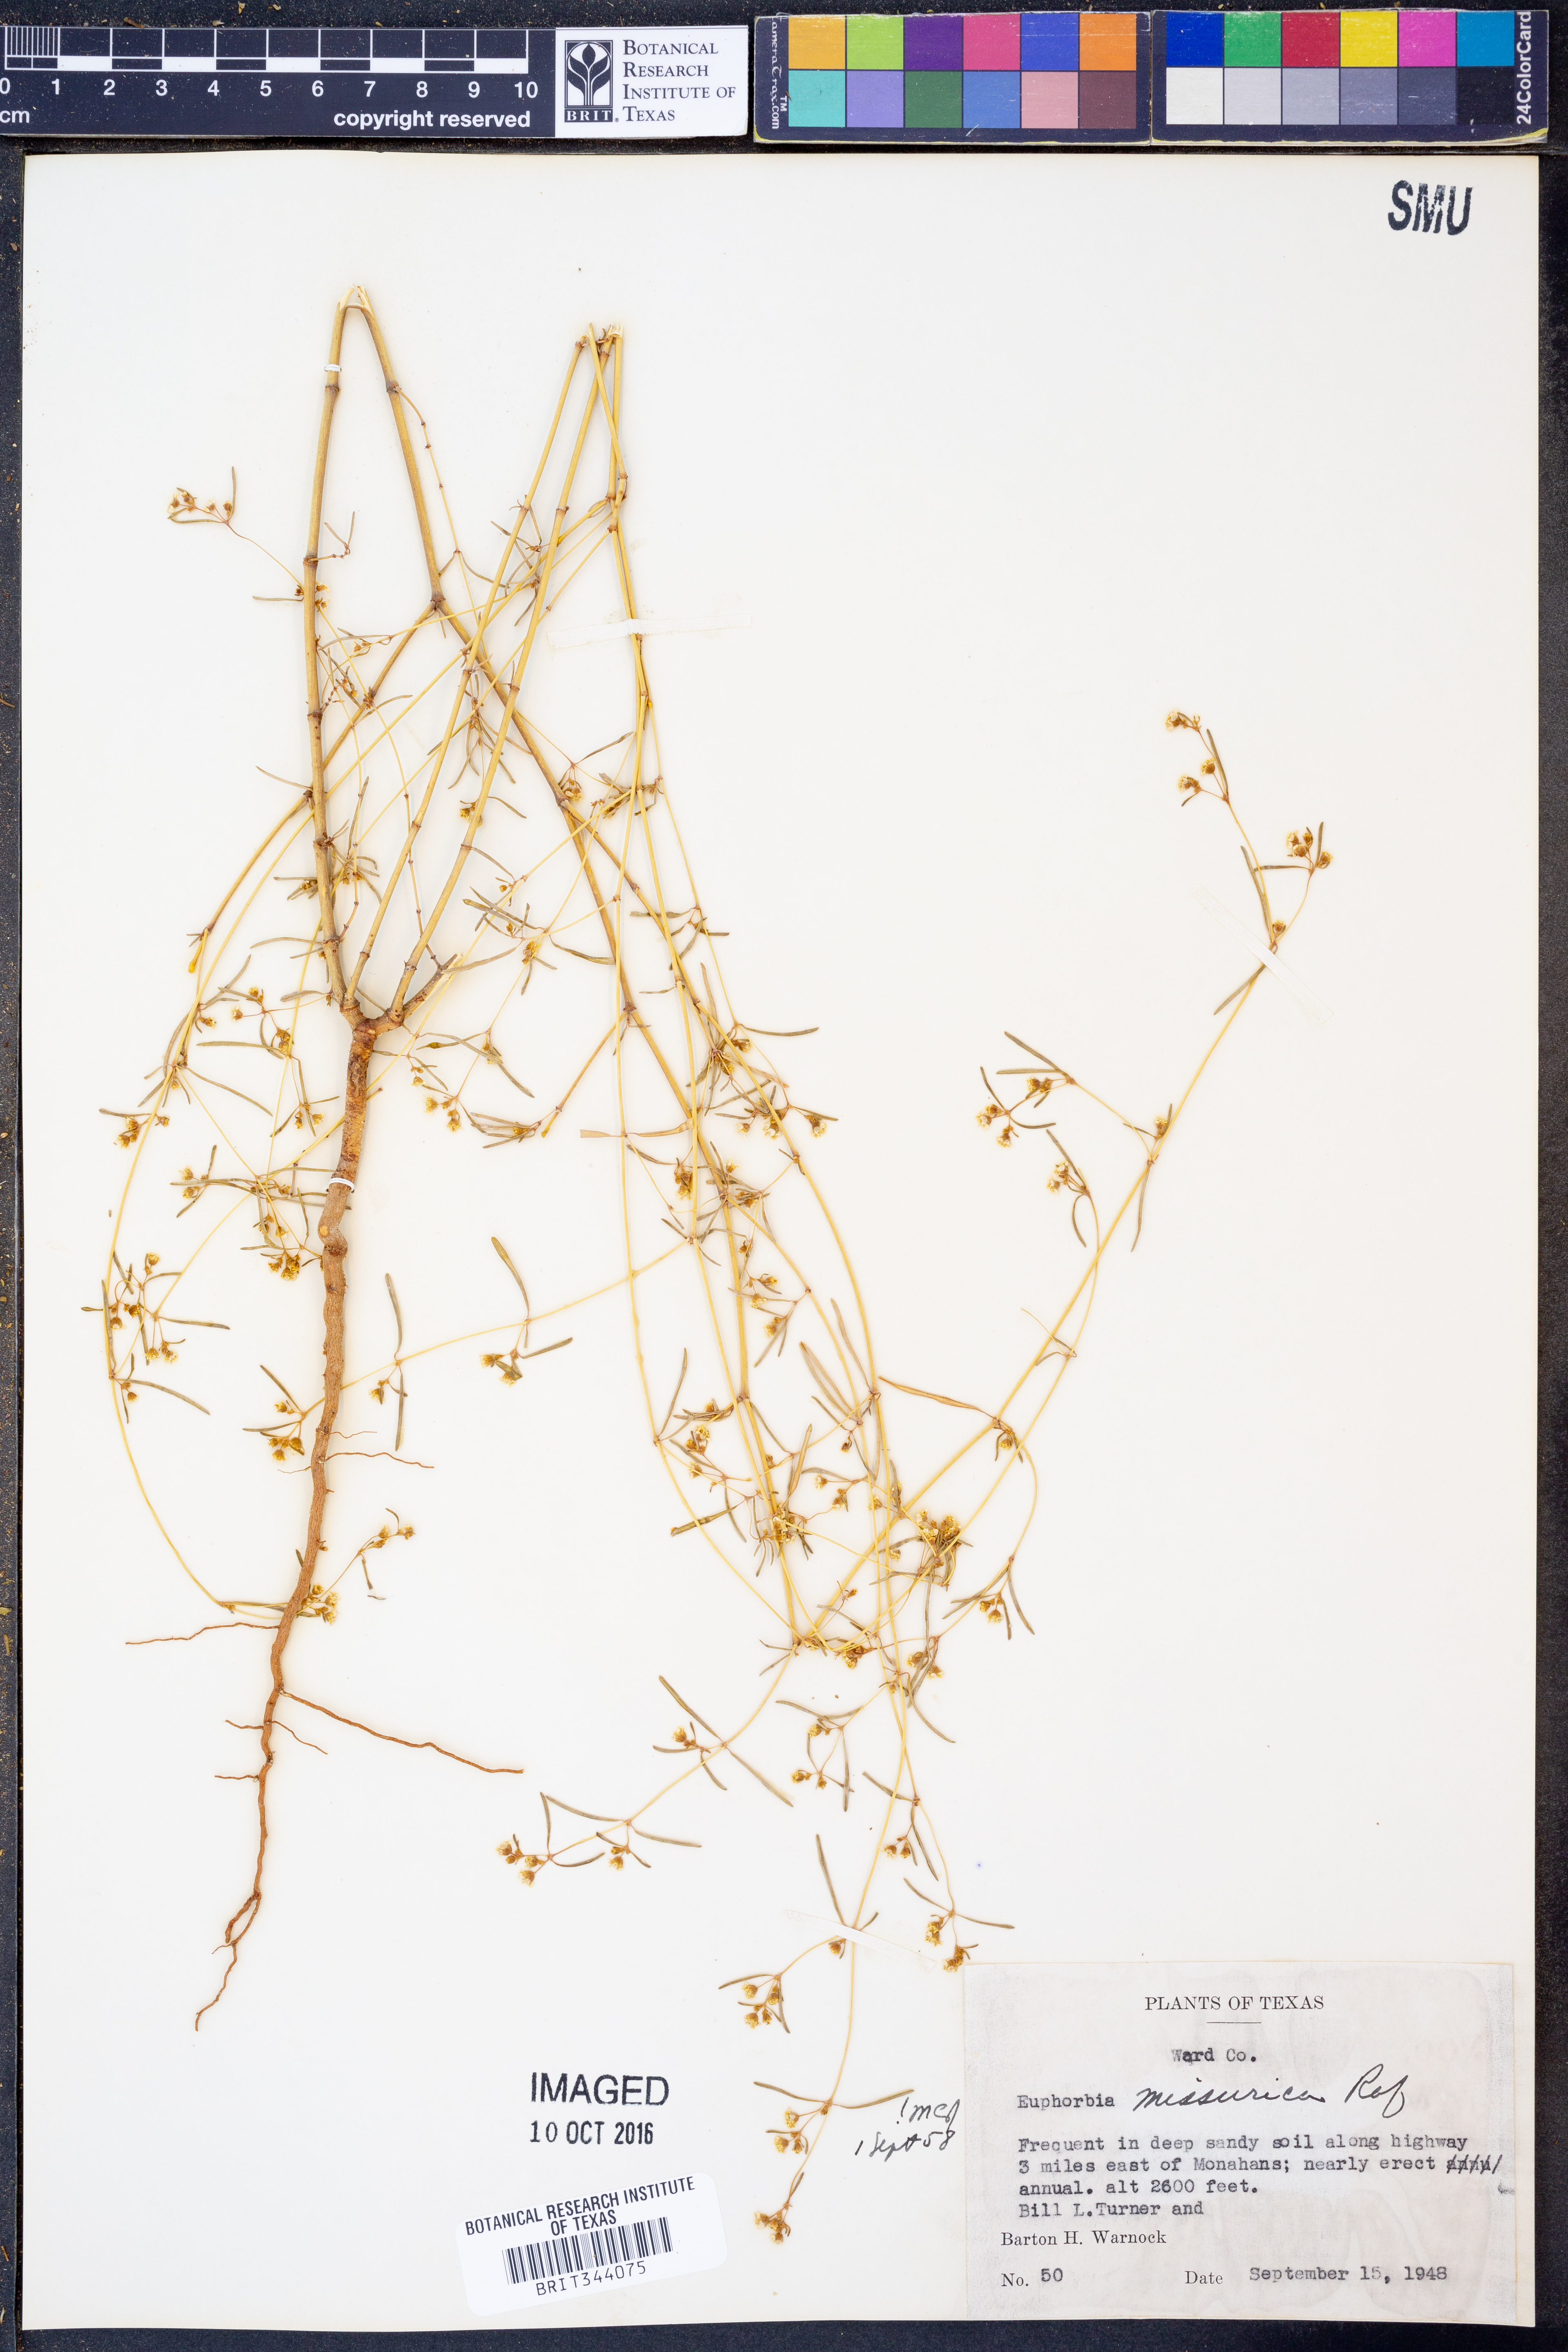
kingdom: Plantae
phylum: Tracheophyta
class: Magnoliopsida
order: Malpighiales
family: Euphorbiaceae
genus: Euphorbia
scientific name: Euphorbia missurica
